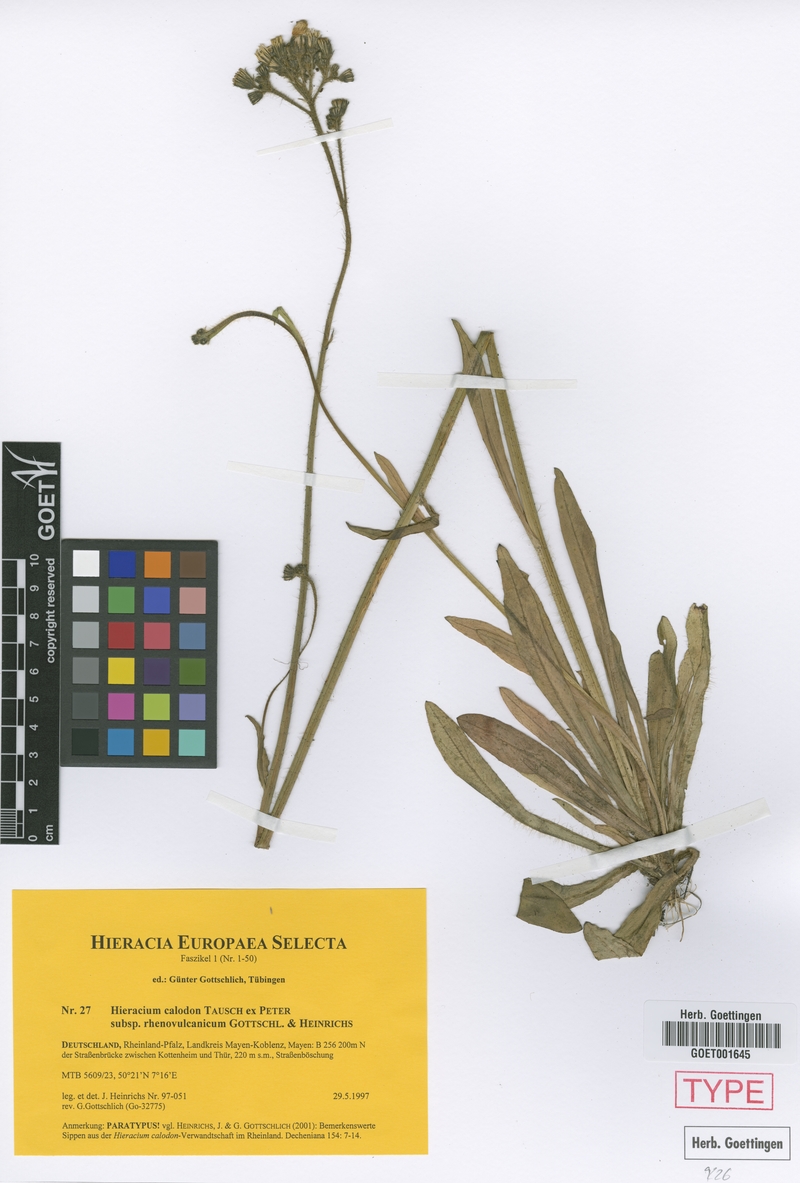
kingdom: Plantae
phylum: Tracheophyta
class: Magnoliopsida
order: Asterales
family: Asteraceae
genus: Pilosella
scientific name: Pilosella calodon
